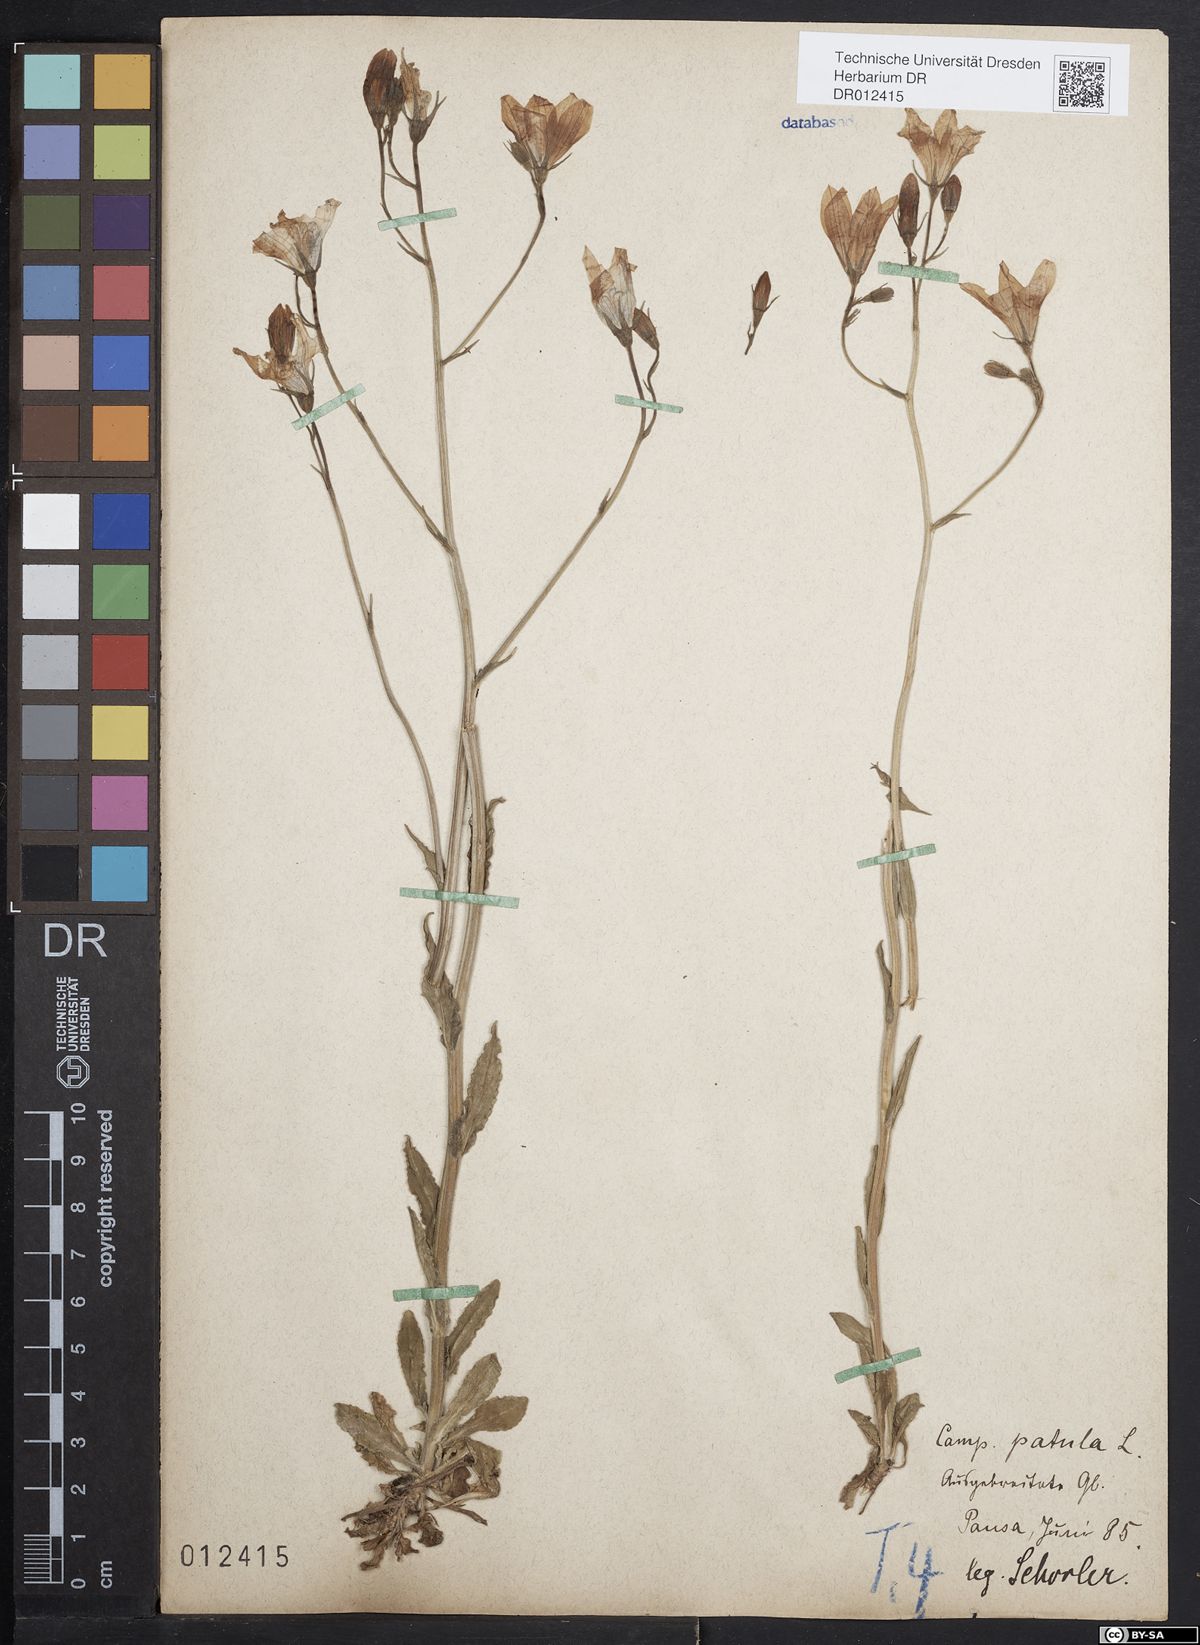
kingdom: Plantae
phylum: Tracheophyta
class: Magnoliopsida
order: Asterales
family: Campanulaceae
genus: Campanula
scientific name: Campanula patula
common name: Spreading bellflower
